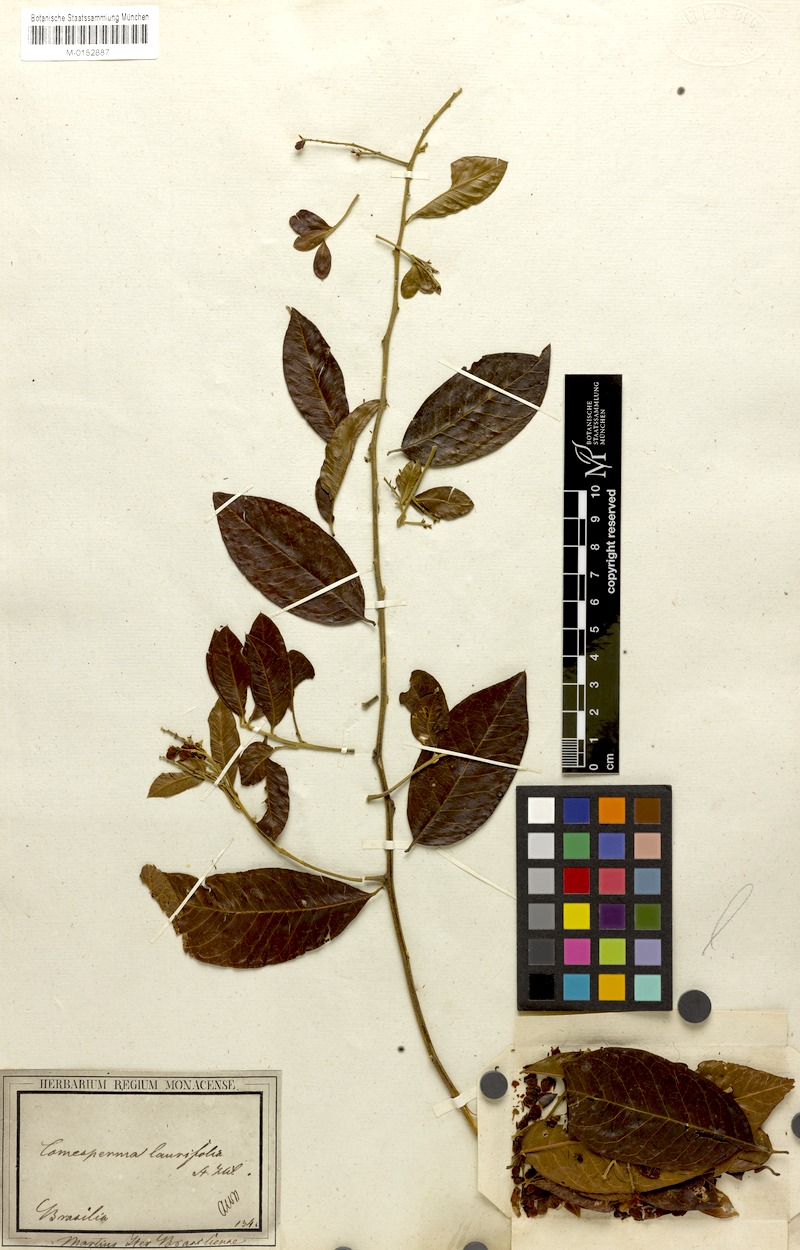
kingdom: Plantae
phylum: Tracheophyta
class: Magnoliopsida
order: Fabales
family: Polygalaceae
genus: Bredemeyera
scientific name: Bredemeyera laurifolia
